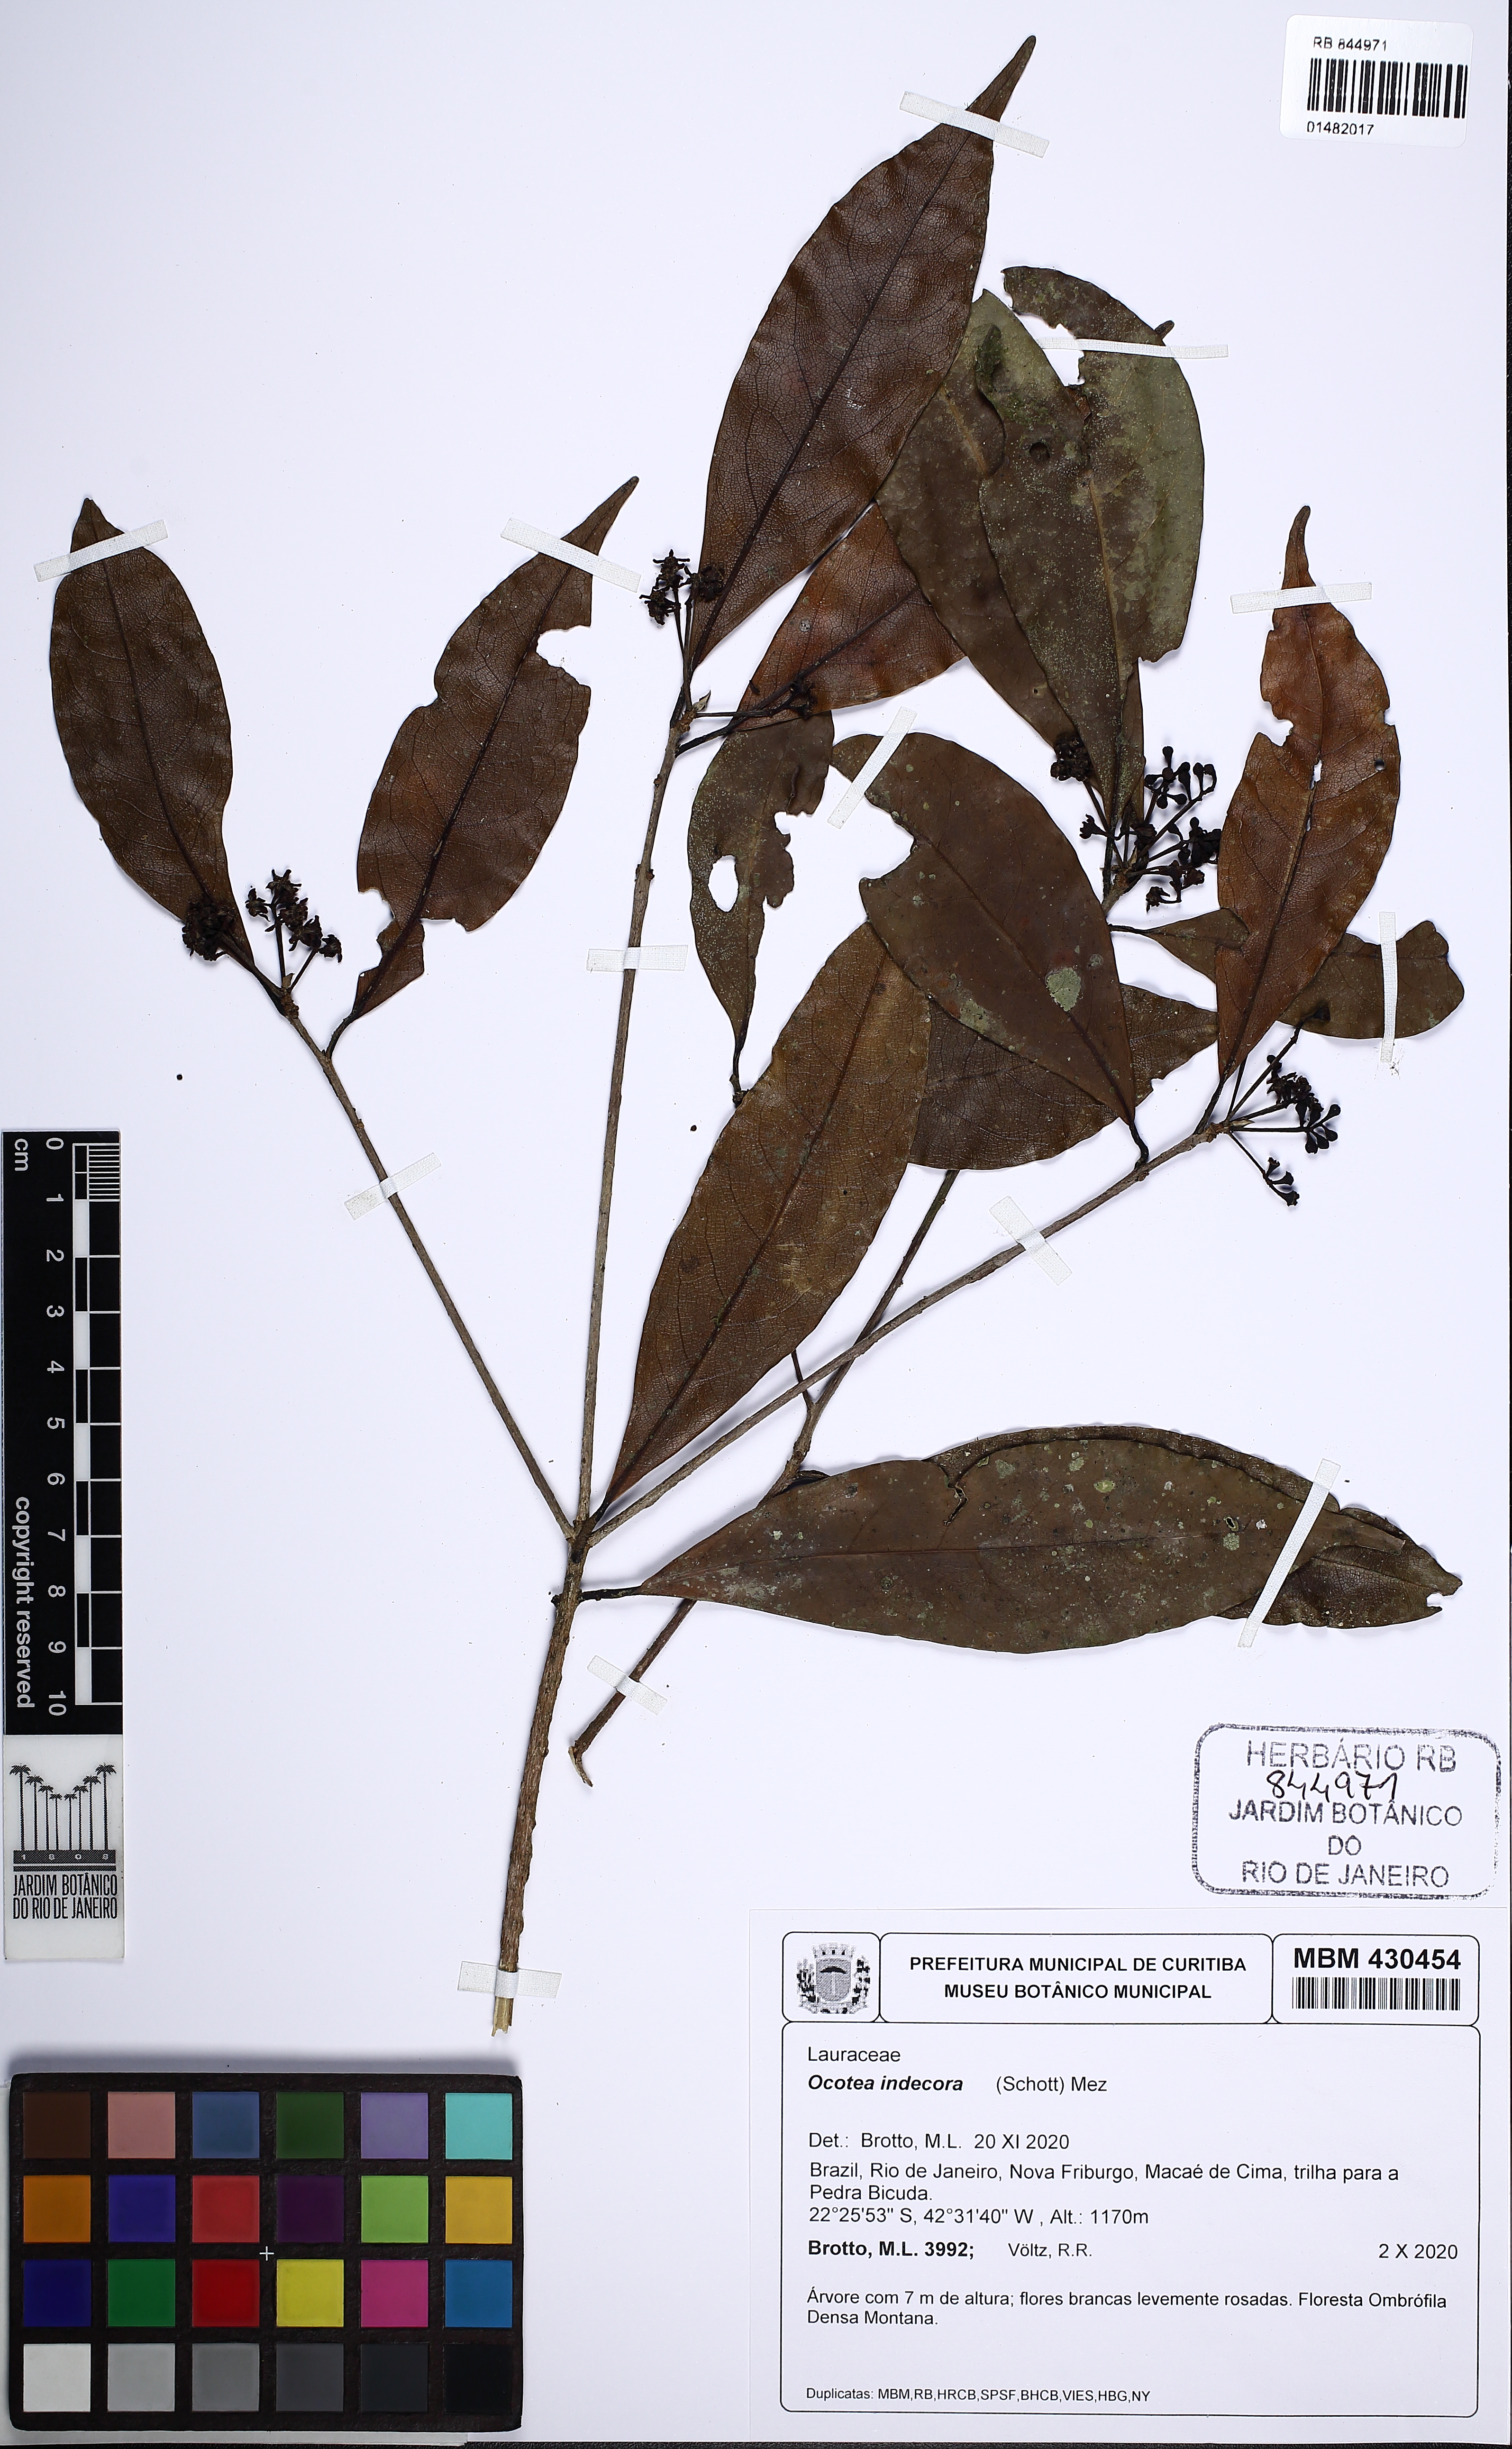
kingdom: Plantae
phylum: Tracheophyta
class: Magnoliopsida
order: Laurales
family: Lauraceae
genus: Mespilodaphne
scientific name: Mespilodaphne indecora
